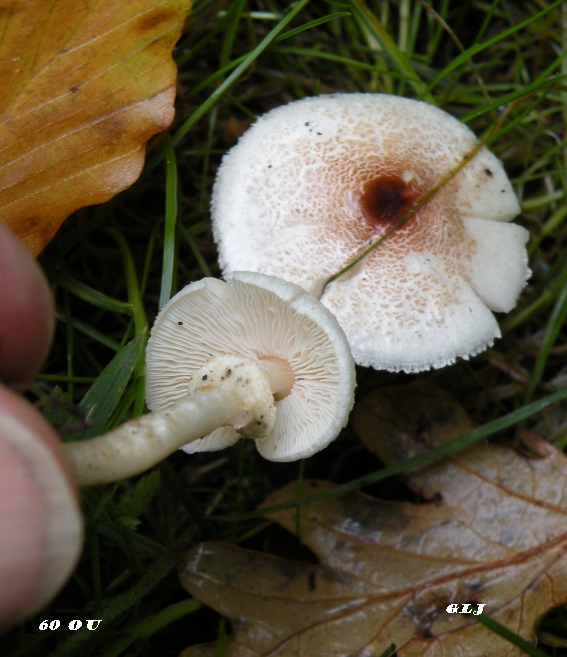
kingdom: Fungi
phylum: Basidiomycota
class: Agaricomycetes
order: Agaricales
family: Agaricaceae
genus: Lepiota
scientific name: Lepiota cristata
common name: stinkende parasolhat
